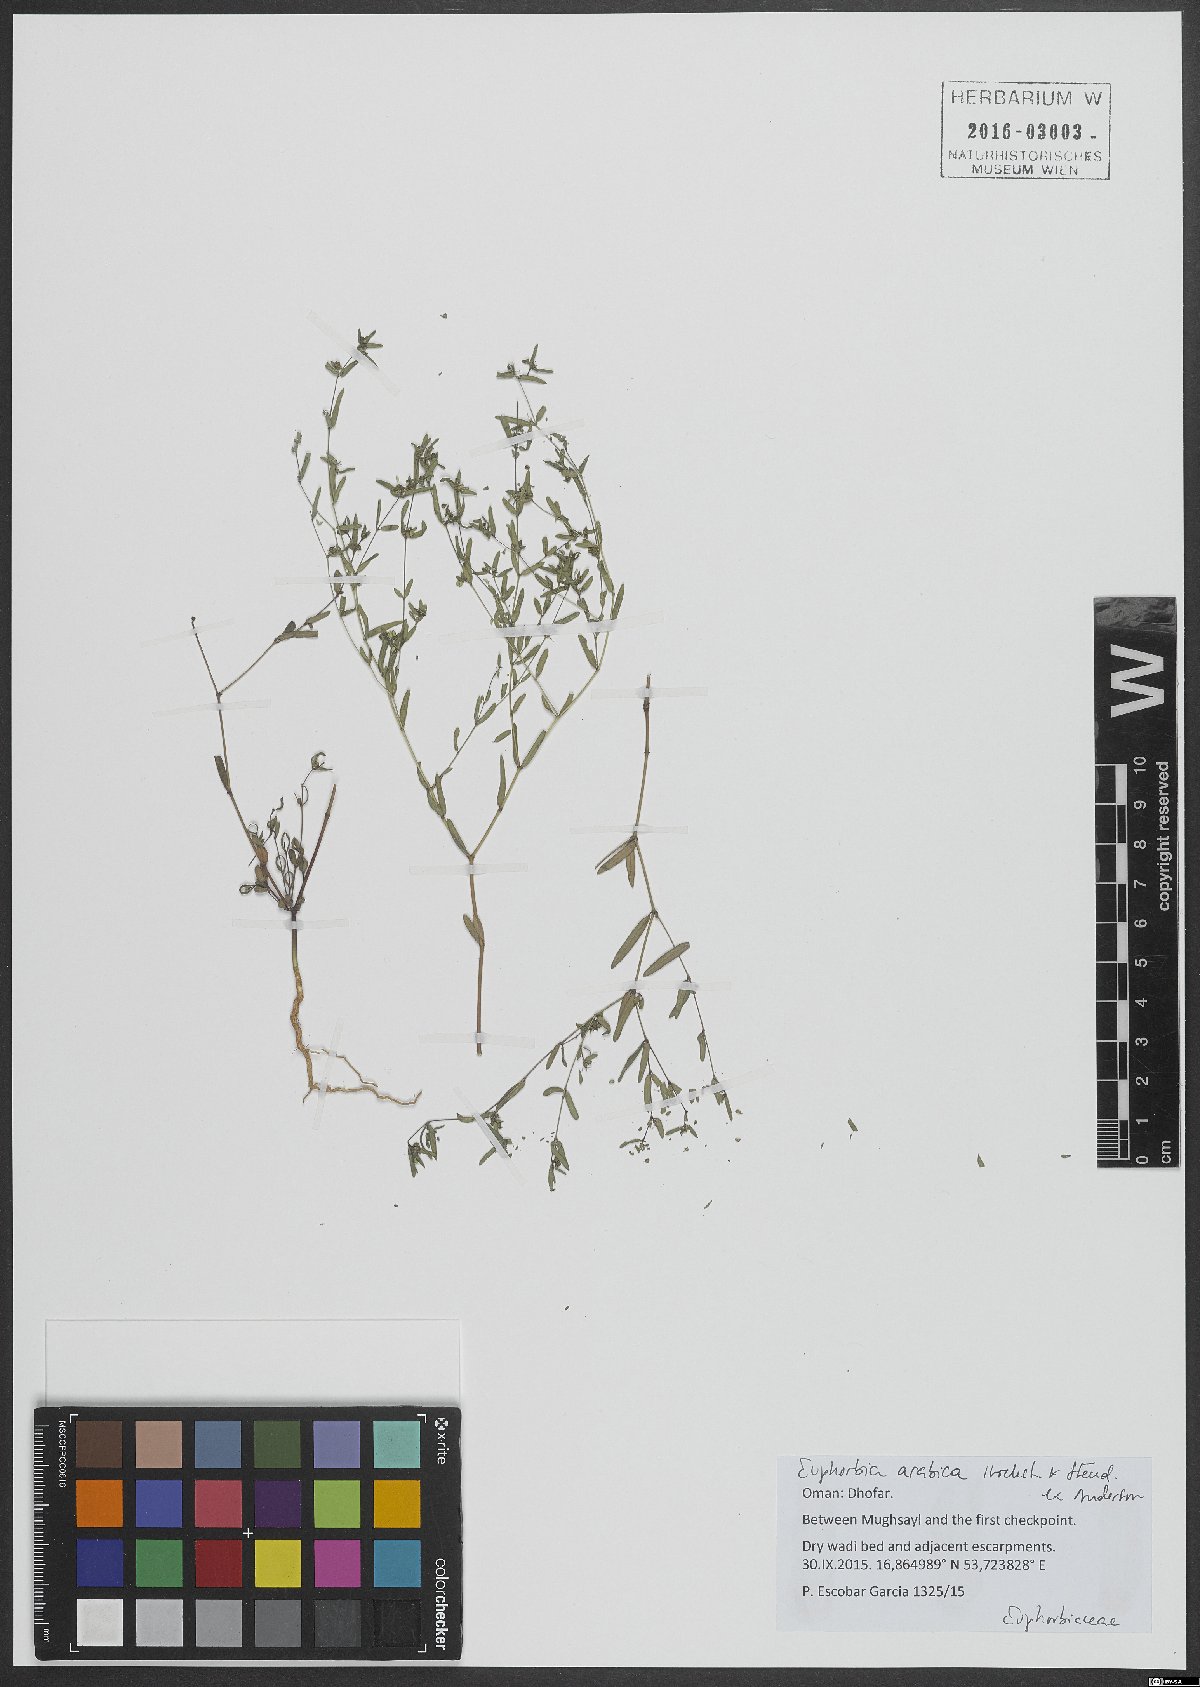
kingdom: Plantae
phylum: Tracheophyta
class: Magnoliopsida
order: Malpighiales
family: Euphorbiaceae
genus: Euphorbia
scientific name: Euphorbia arabica
